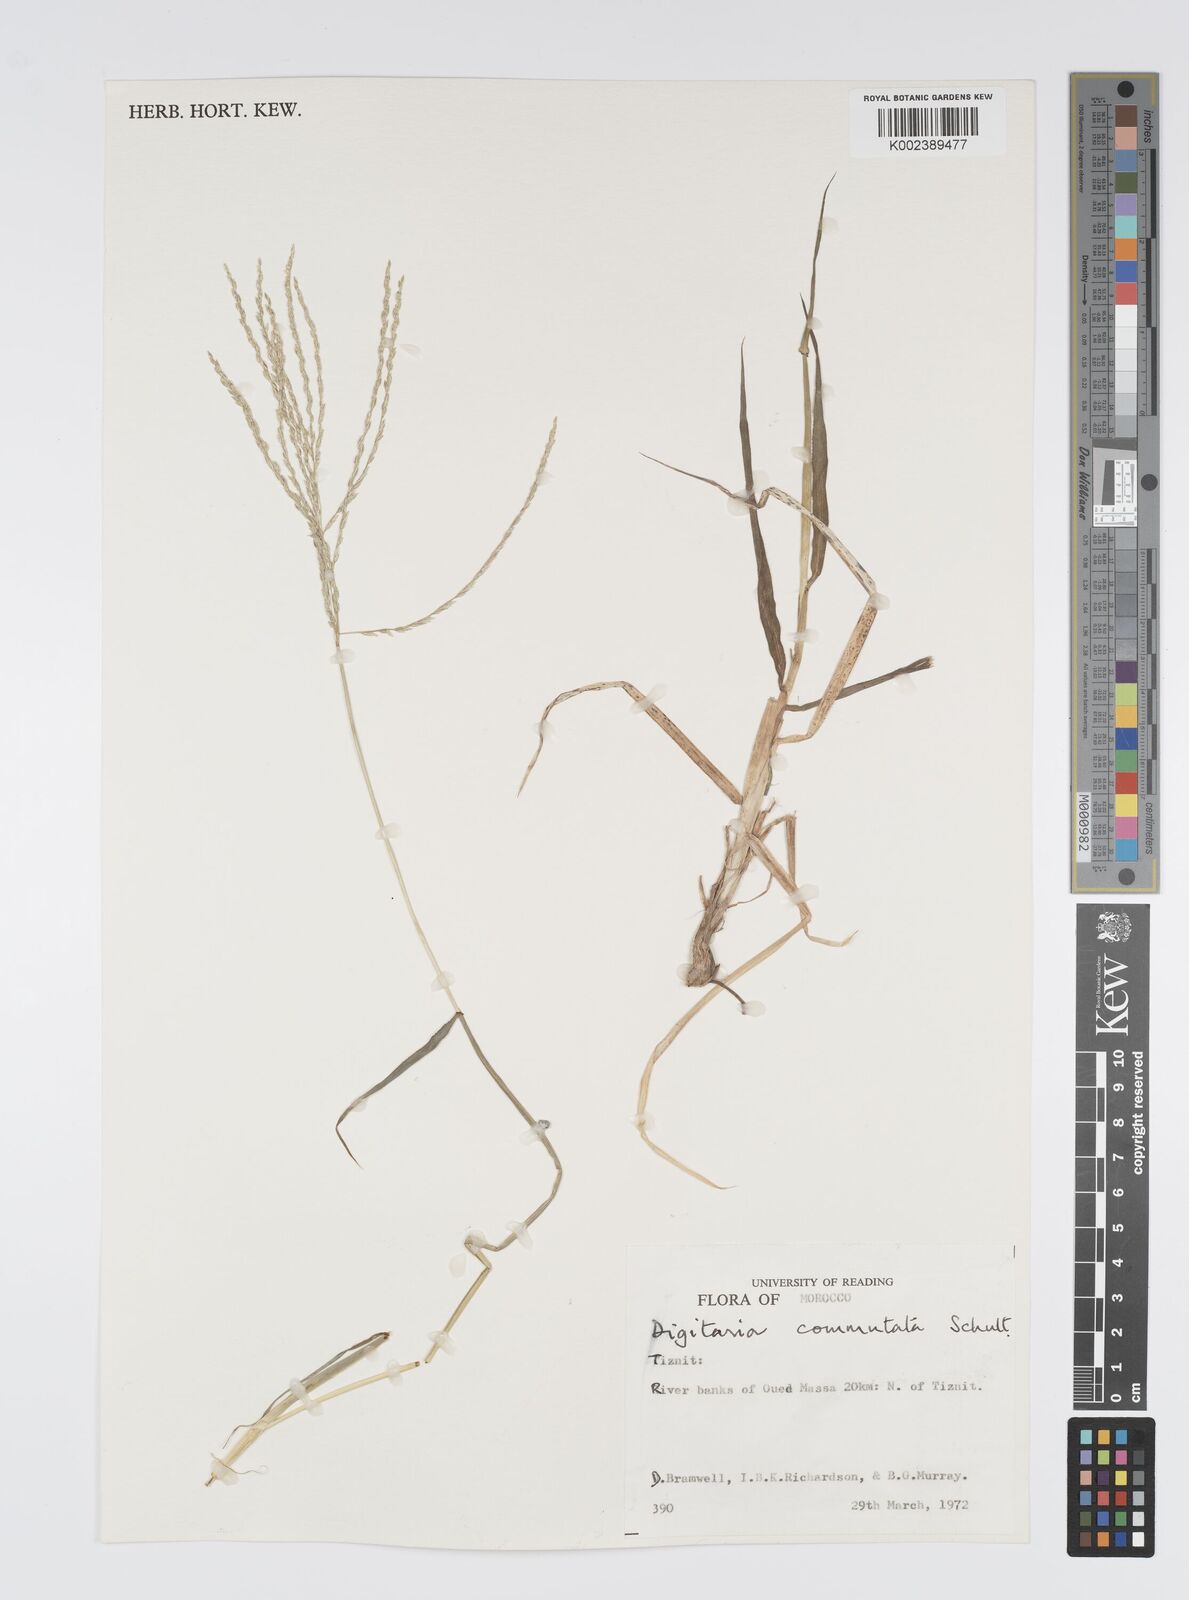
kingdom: Plantae
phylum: Tracheophyta
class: Liliopsida
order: Poales
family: Poaceae
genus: Digitaria
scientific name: Digitaria nodosa
